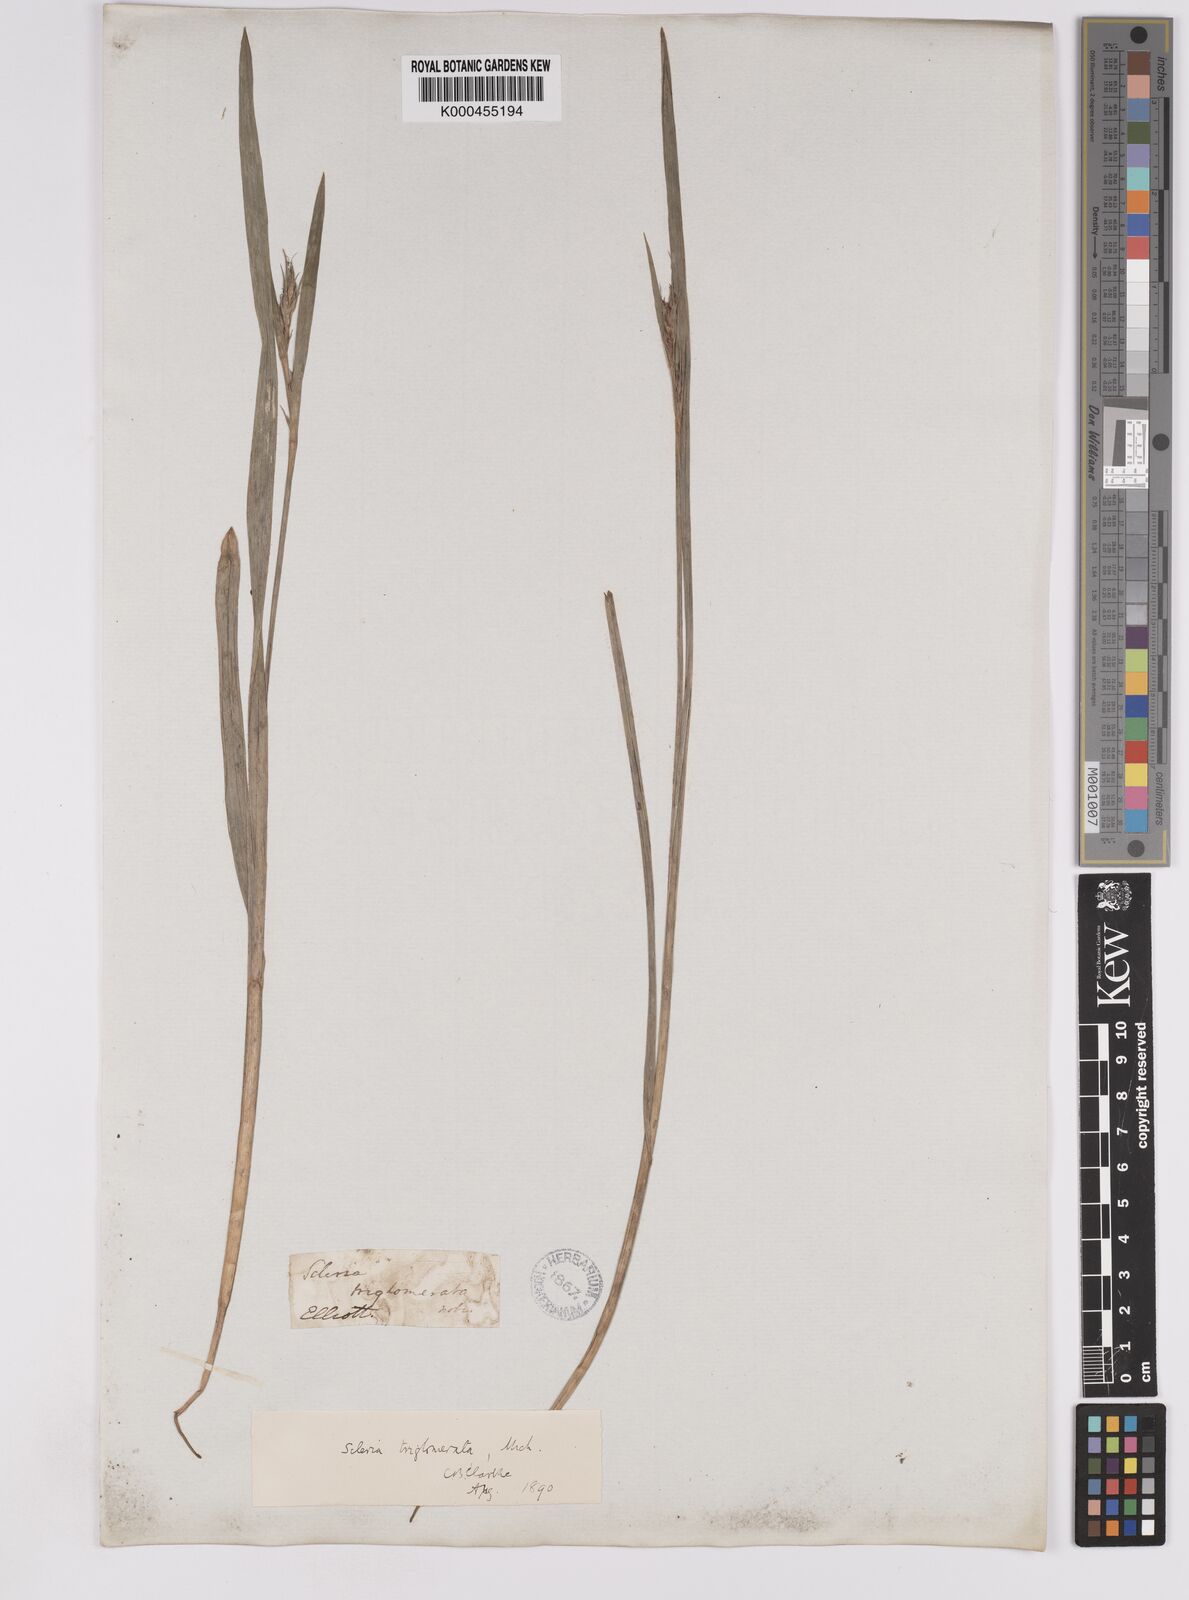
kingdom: Plantae
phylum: Tracheophyta
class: Liliopsida
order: Poales
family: Cyperaceae
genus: Scleria
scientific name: Scleria triglomerata
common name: Whip nutrush
